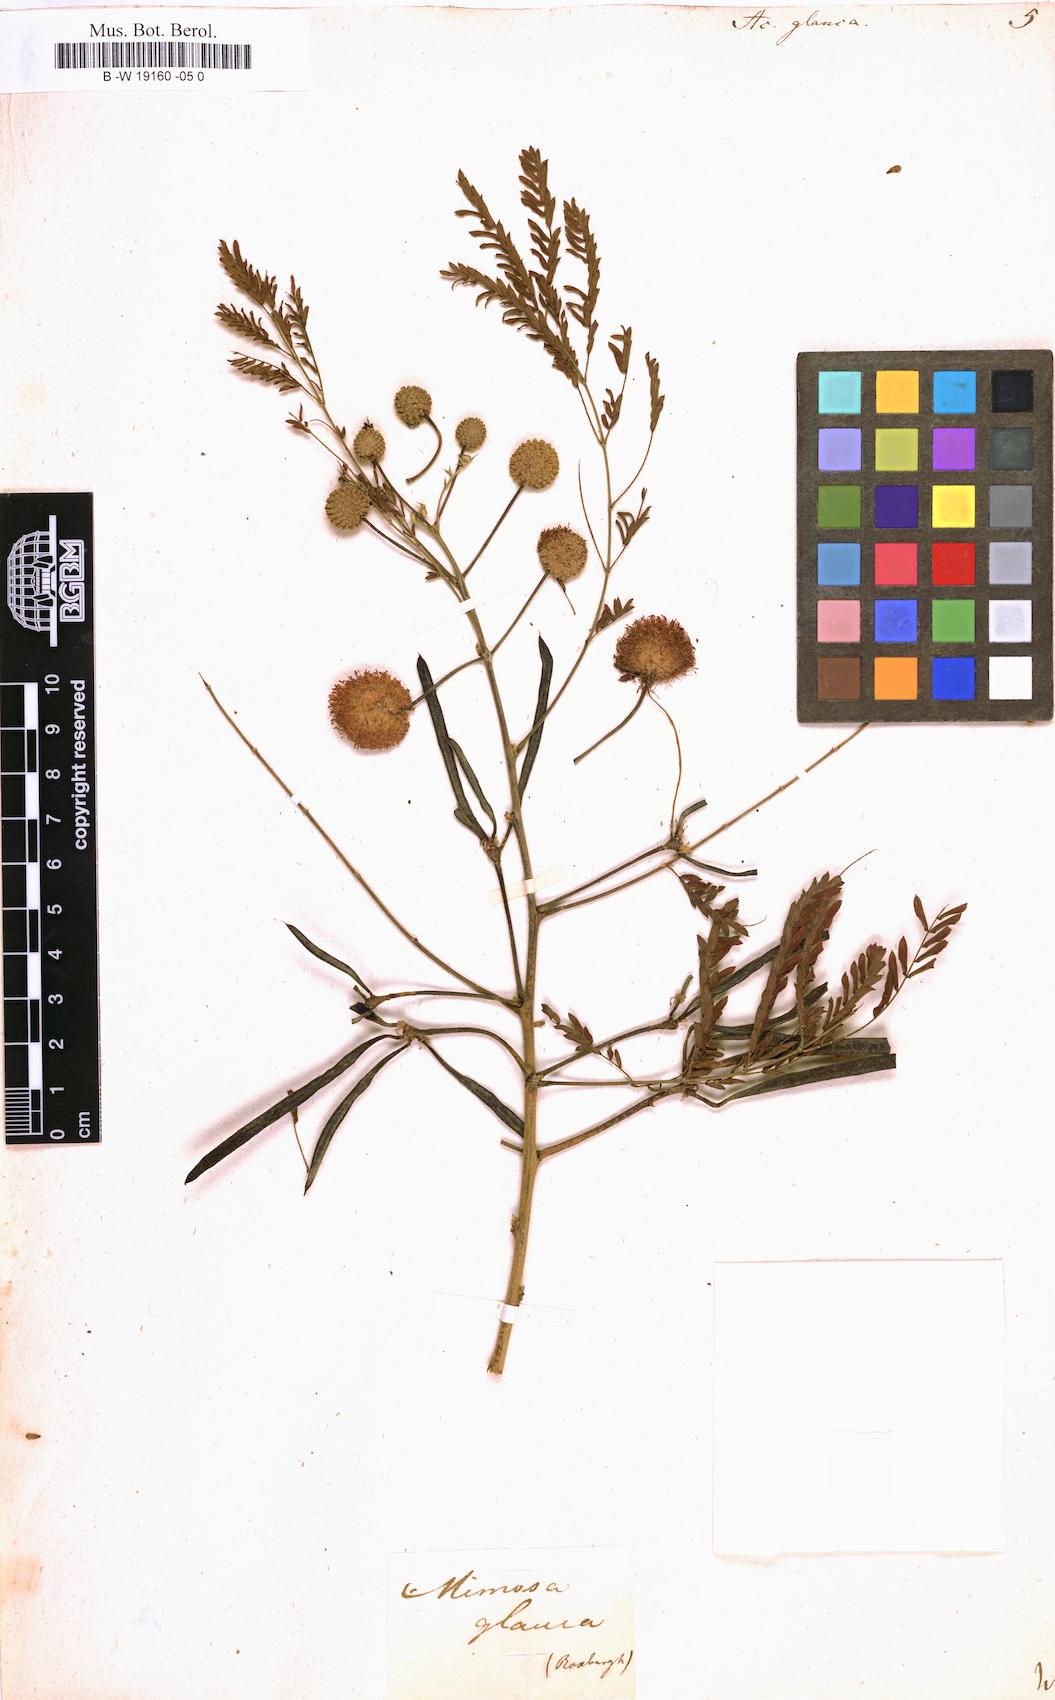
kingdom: Plantae
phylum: Tracheophyta
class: Magnoliopsida
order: Fabales
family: Fabaceae
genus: Acaciella
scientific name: Acaciella glauca
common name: Redwood
